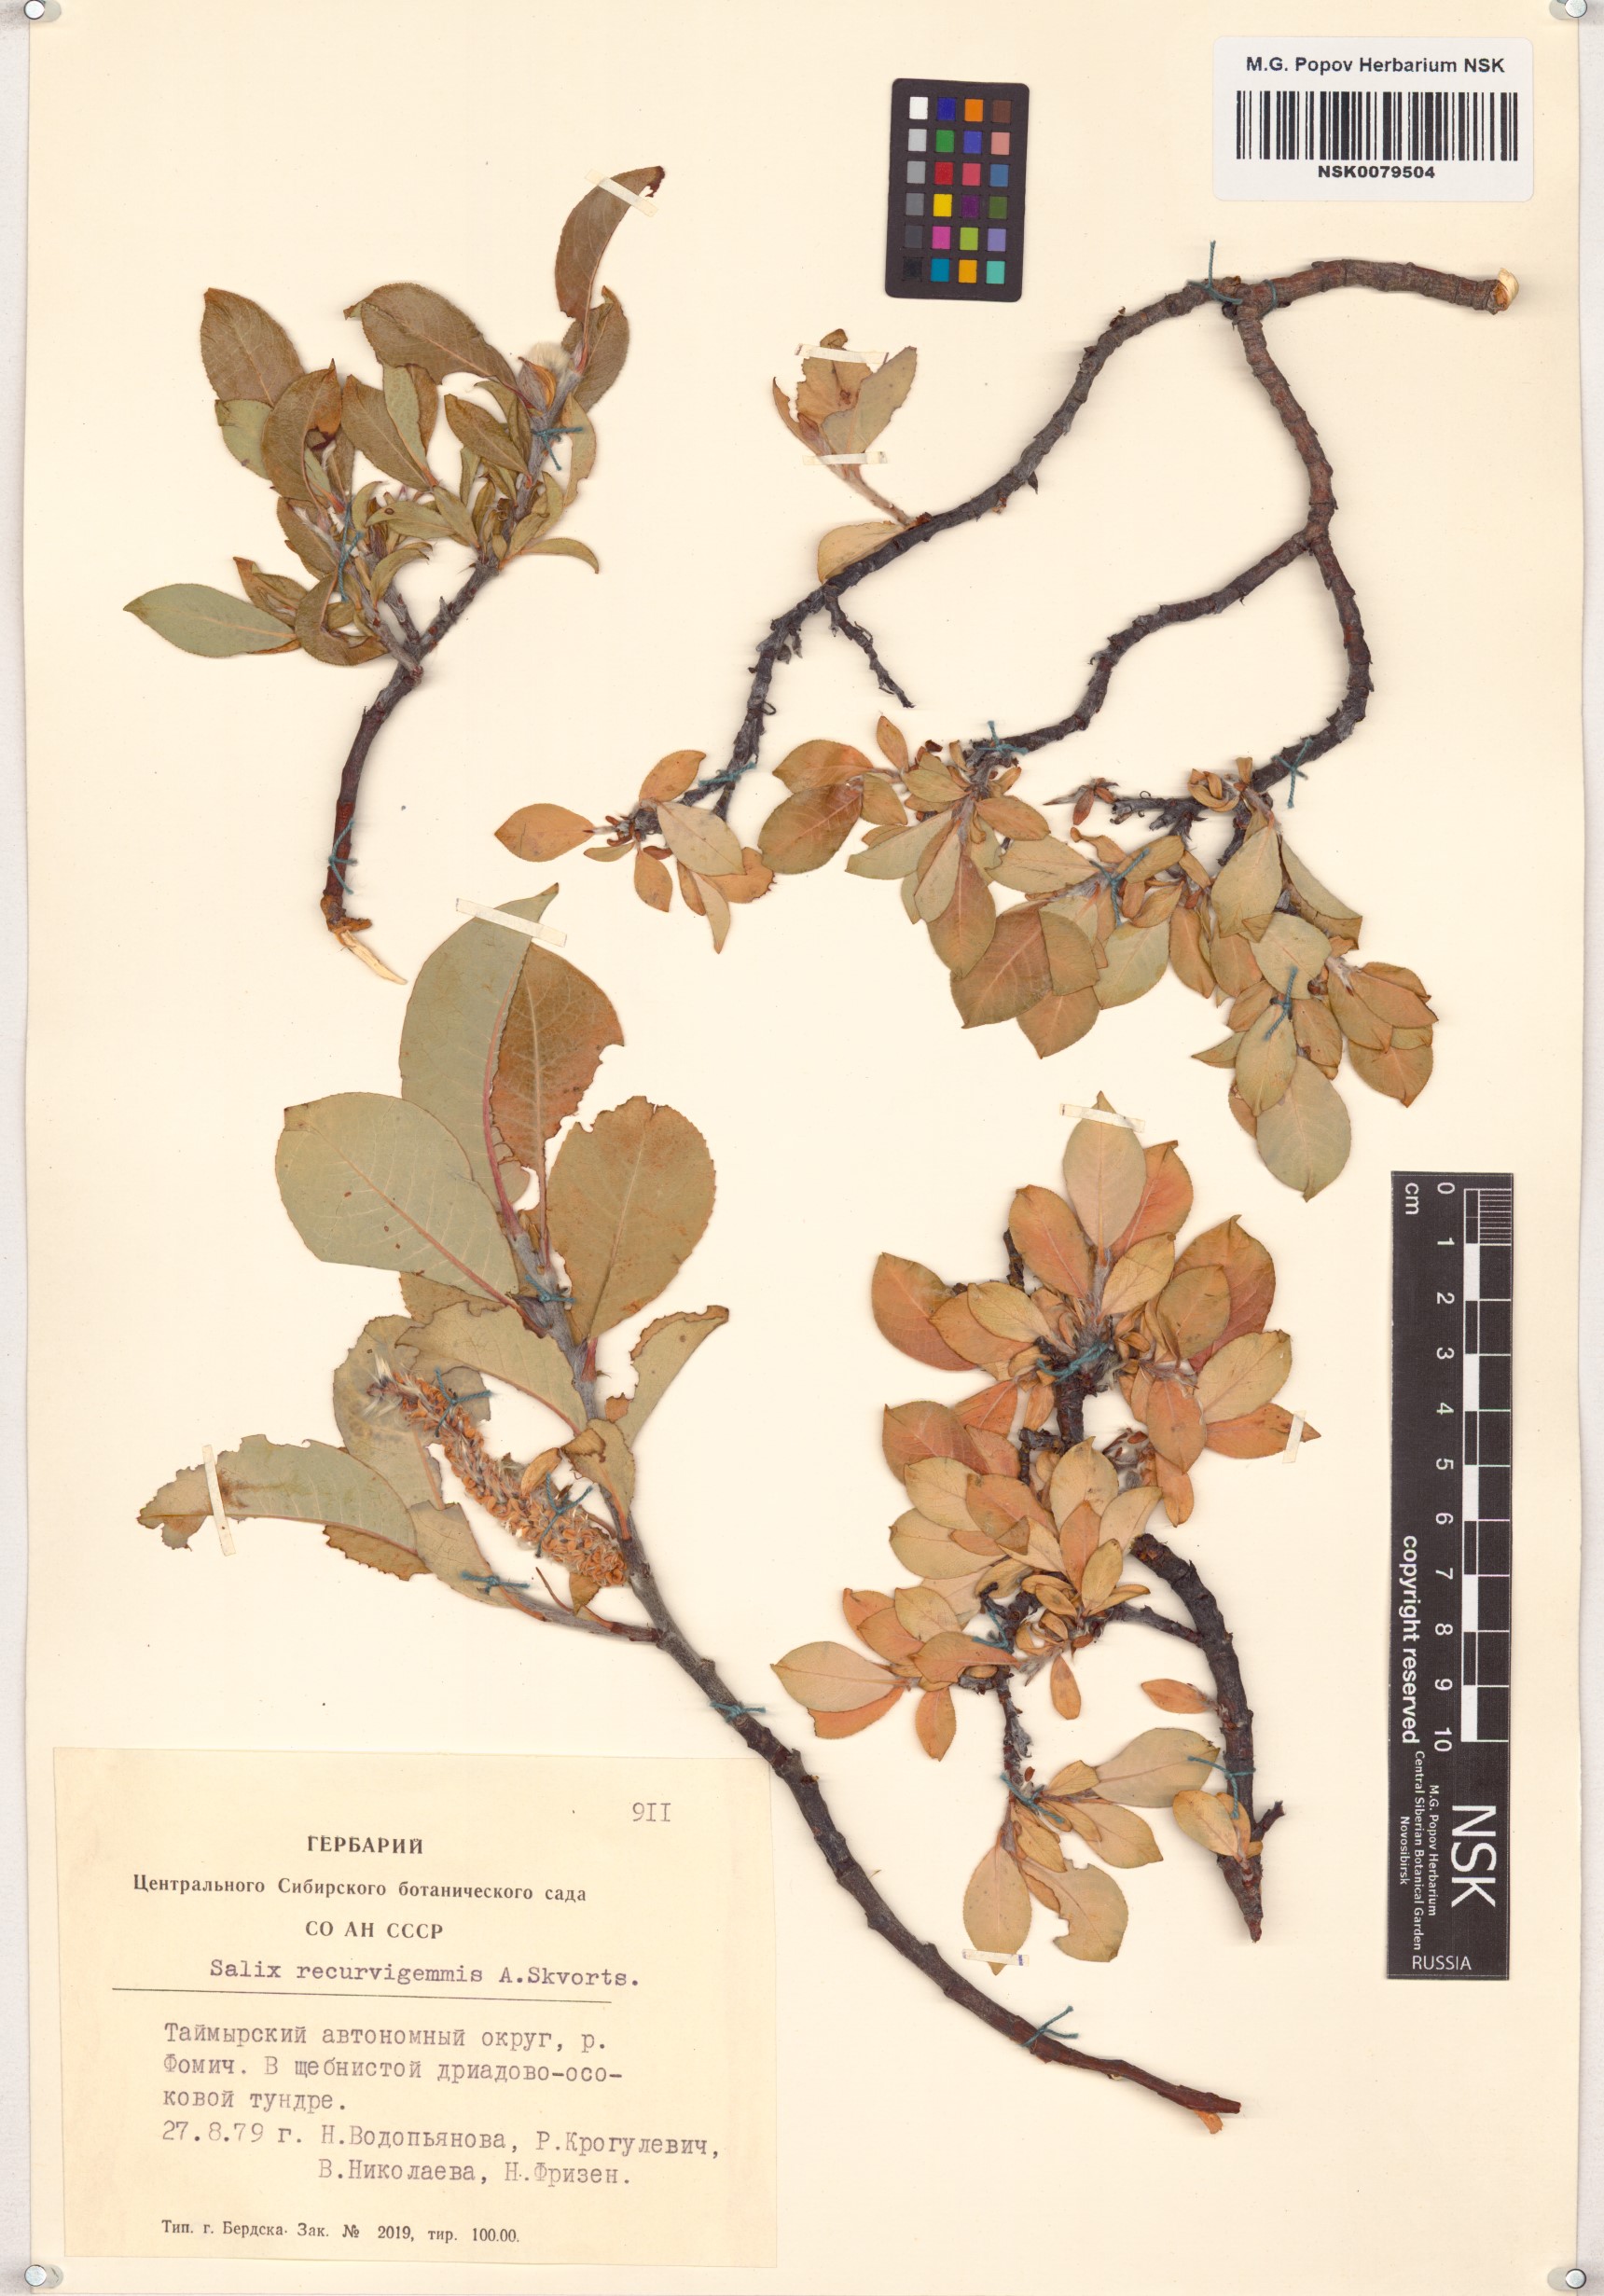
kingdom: Plantae
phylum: Tracheophyta
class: Magnoliopsida
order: Malpighiales
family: Salicaceae
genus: Salix
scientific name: Salix recurvigemmata
